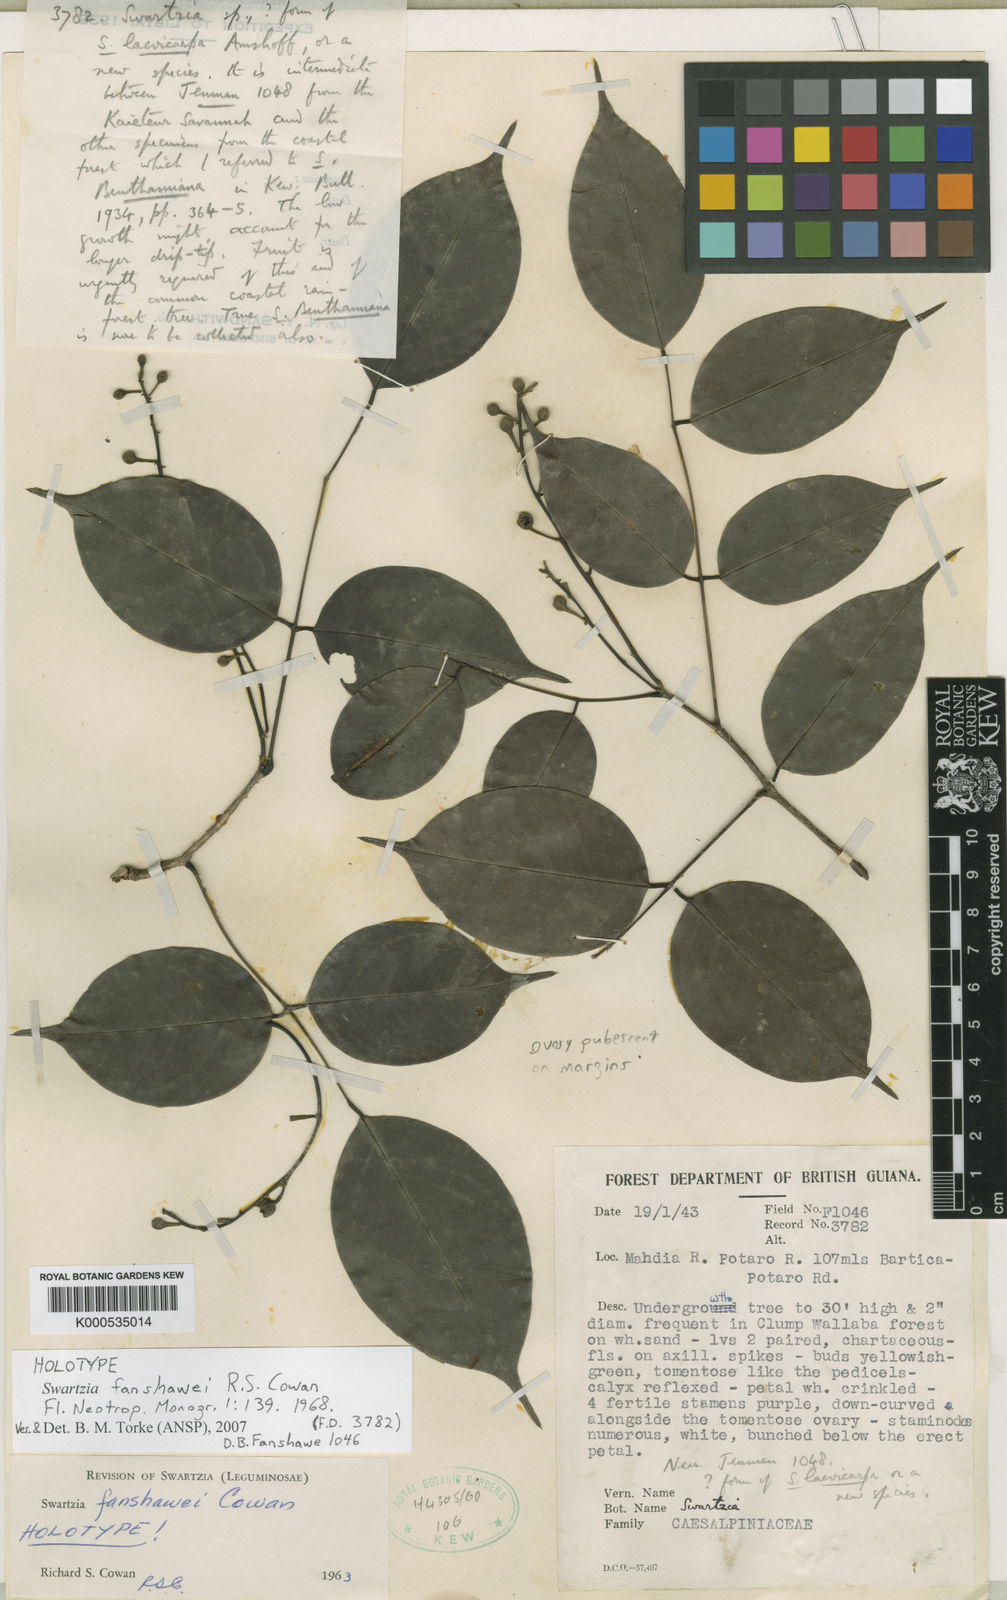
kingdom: Plantae
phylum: Tracheophyta
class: Magnoliopsida
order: Fabales
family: Fabaceae
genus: Swartzia
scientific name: Swartzia fanshawei
